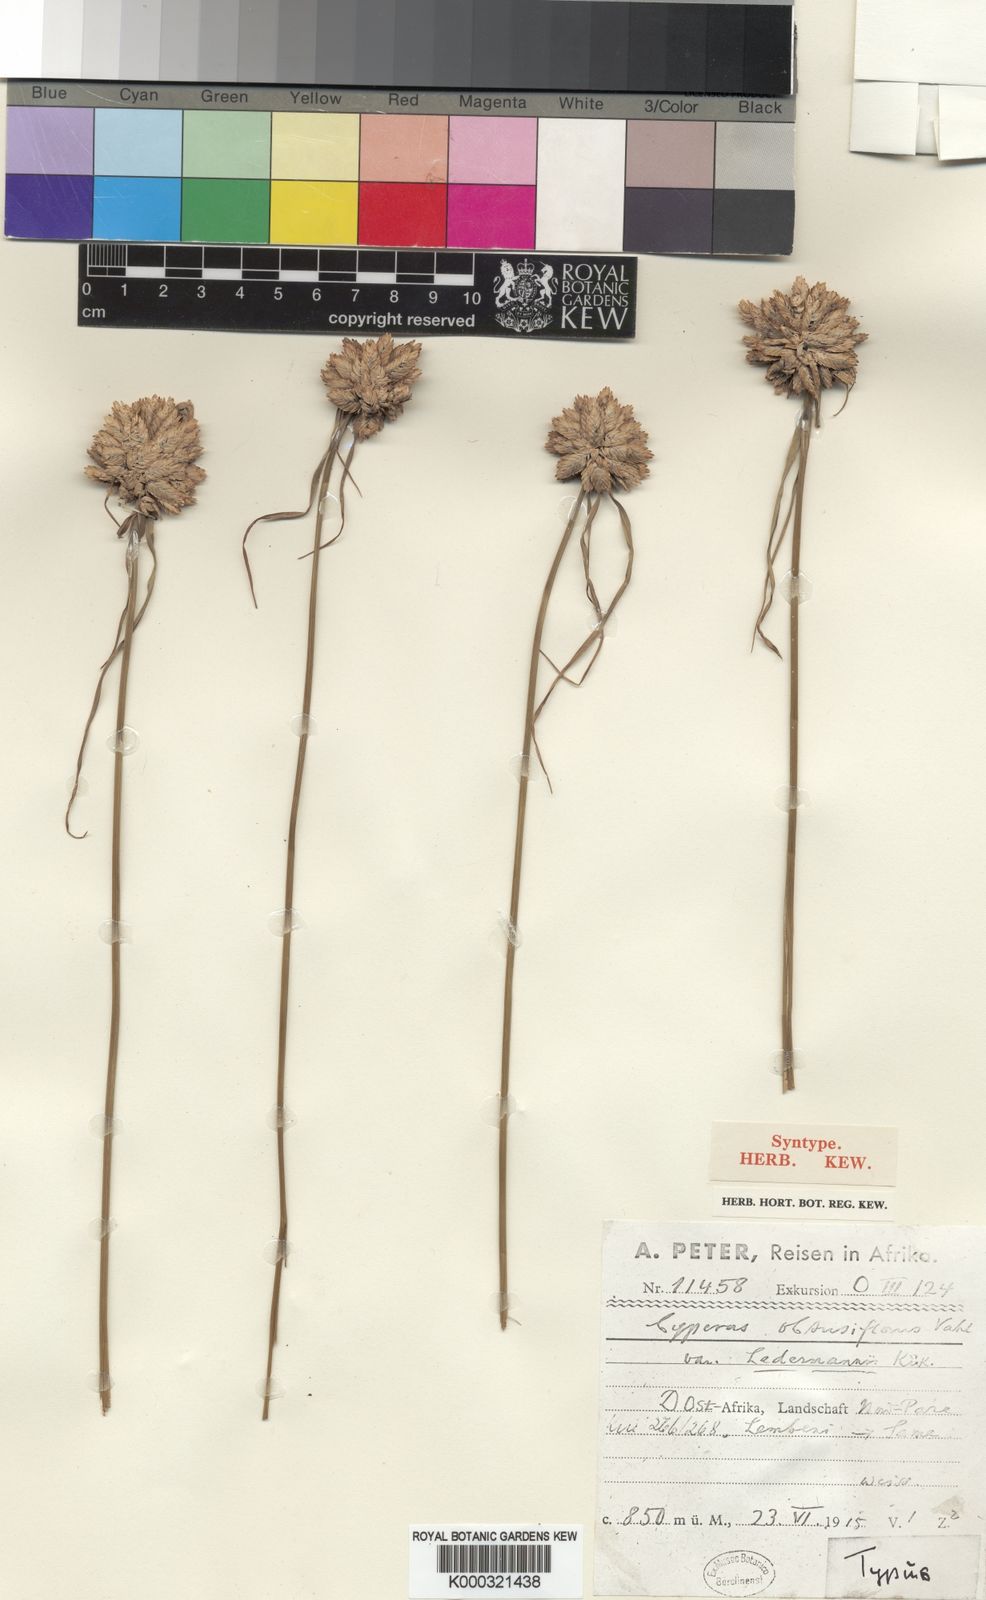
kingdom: Plantae
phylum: Tracheophyta
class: Liliopsida
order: Poales
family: Cyperaceae
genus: Cyperus
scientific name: Cyperus niveus
